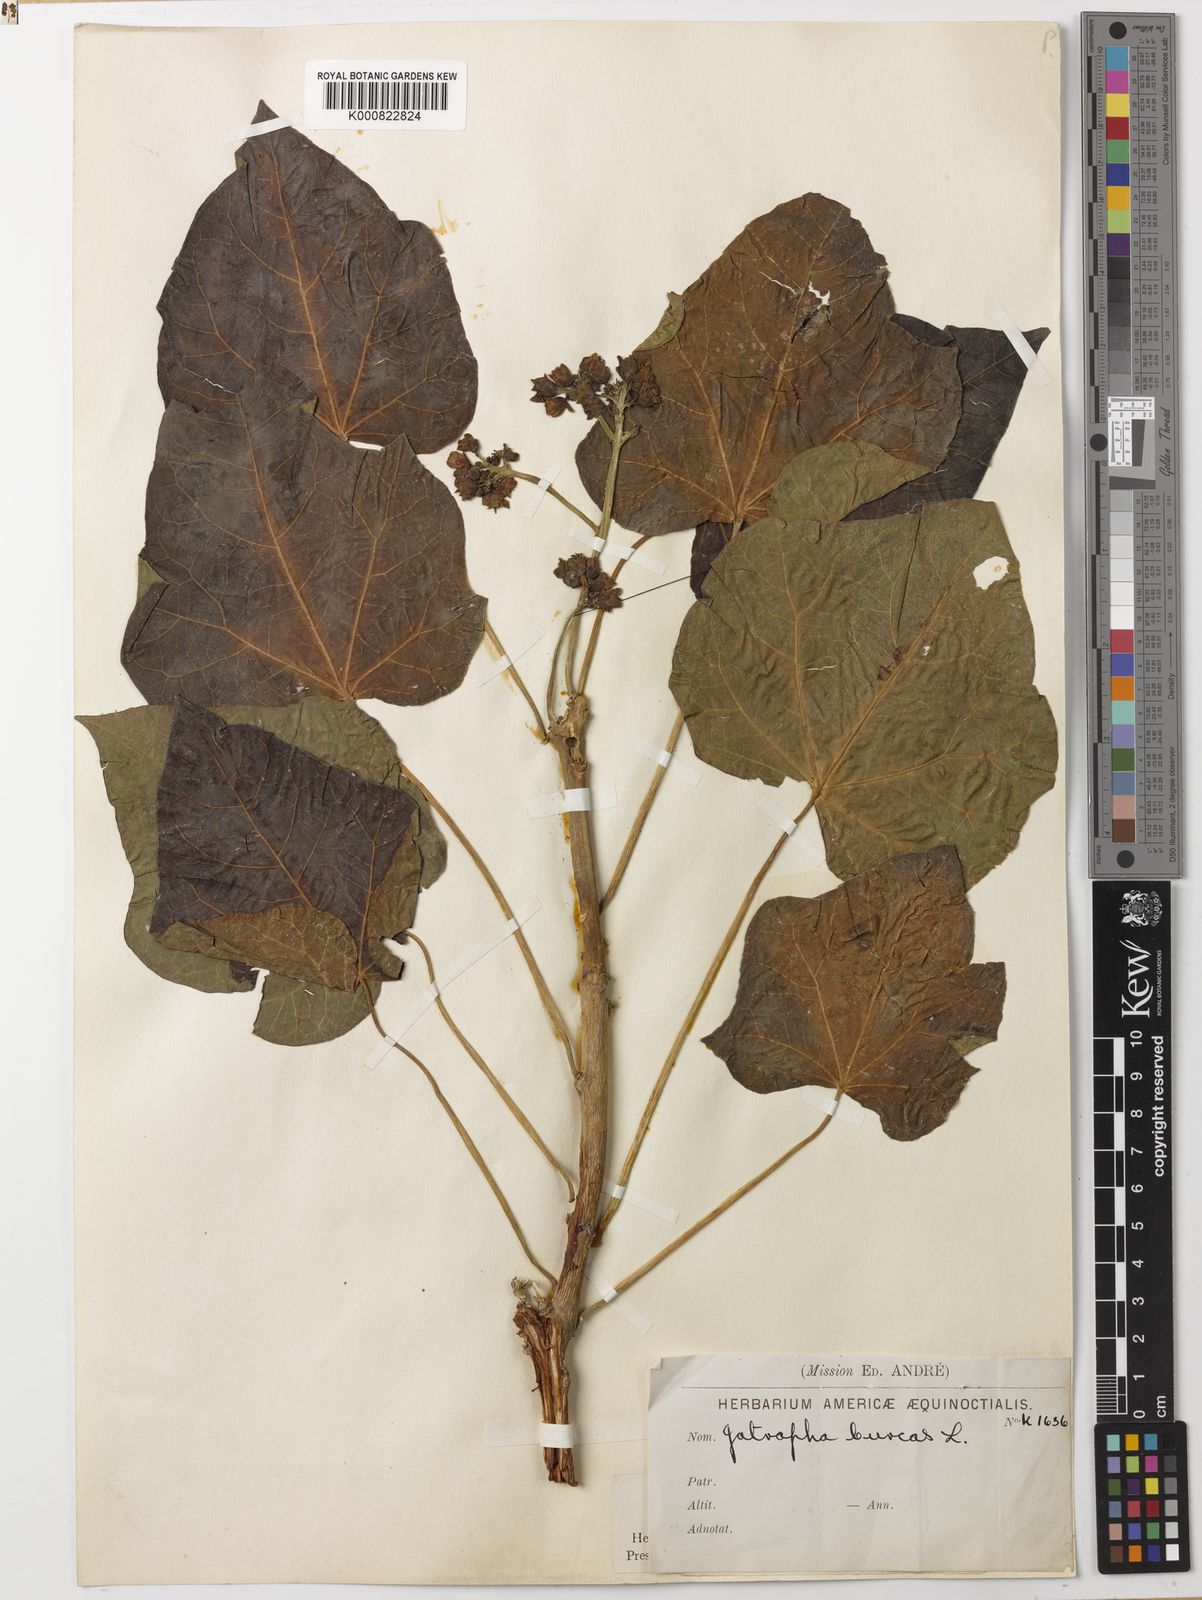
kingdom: Plantae
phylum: Tracheophyta
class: Magnoliopsida
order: Malpighiales
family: Euphorbiaceae
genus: Jatropha
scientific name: Jatropha curcas
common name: Barbados nut
